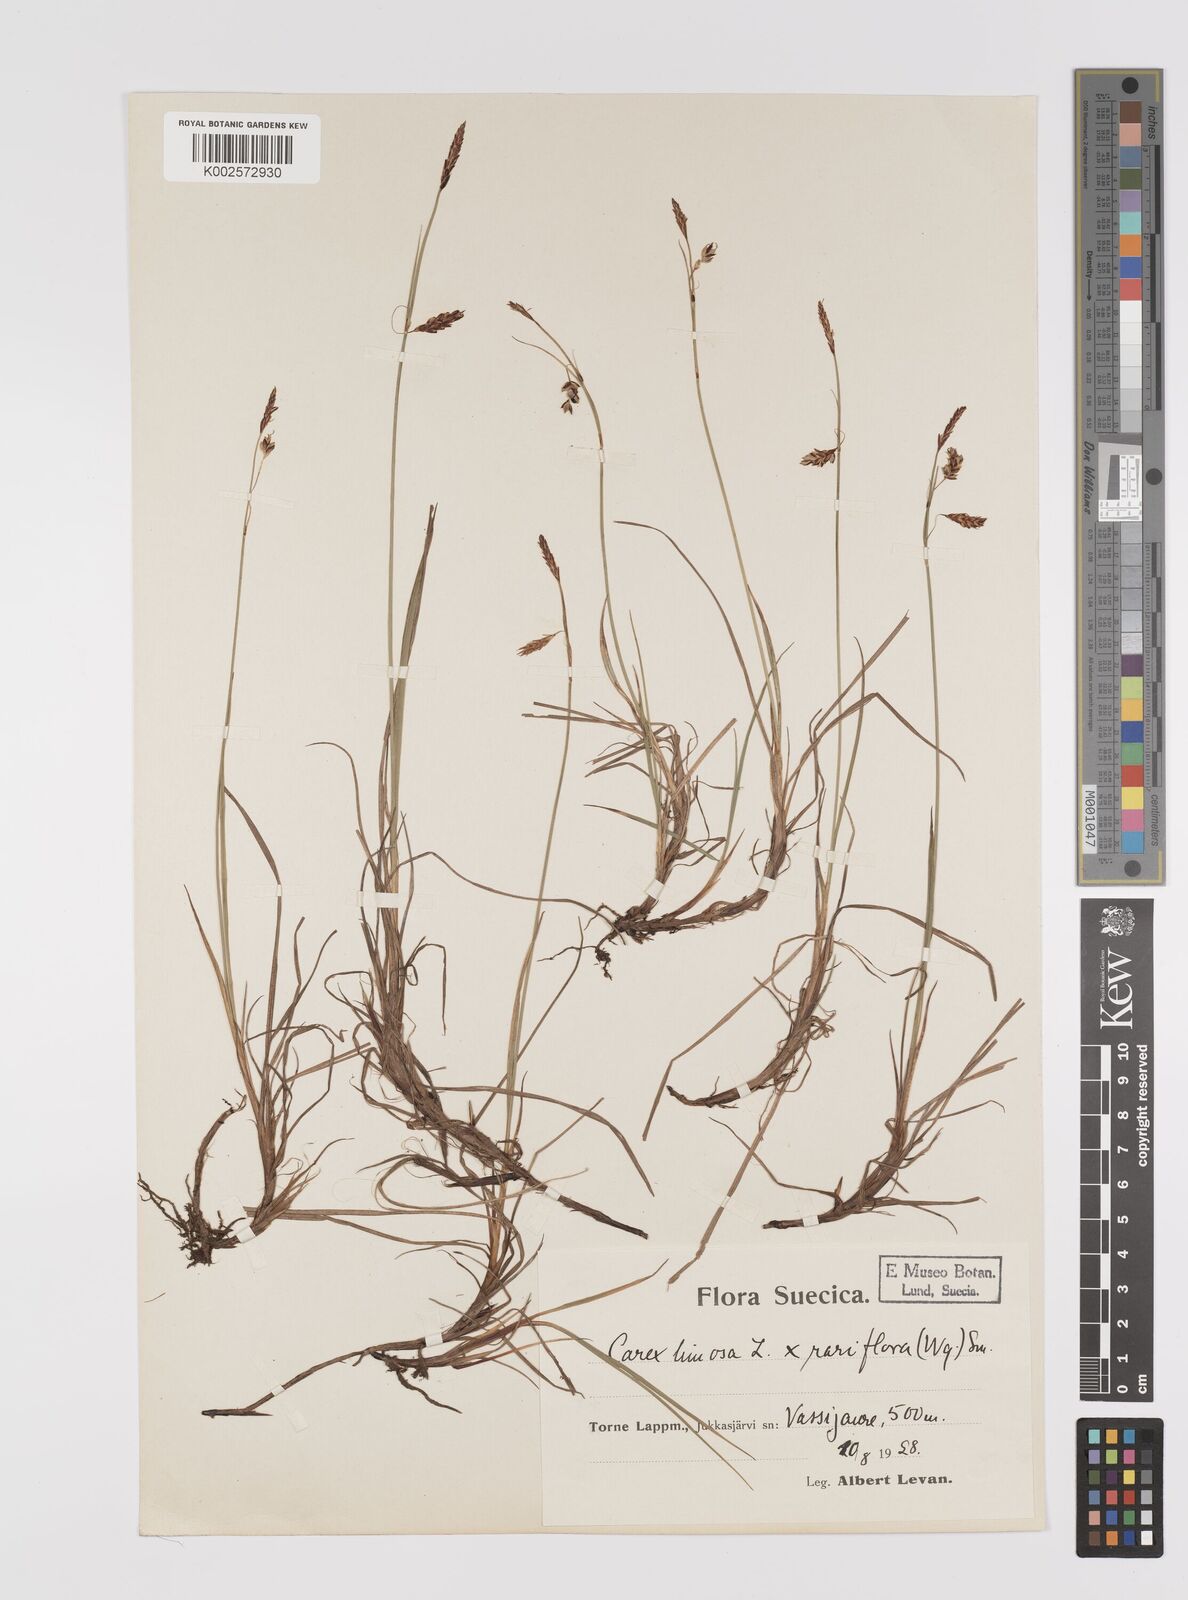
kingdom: Plantae
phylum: Tracheophyta
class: Liliopsida
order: Poales
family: Cyperaceae
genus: Carex
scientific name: Carex rariflora
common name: Loose-flowered alpine sedge
